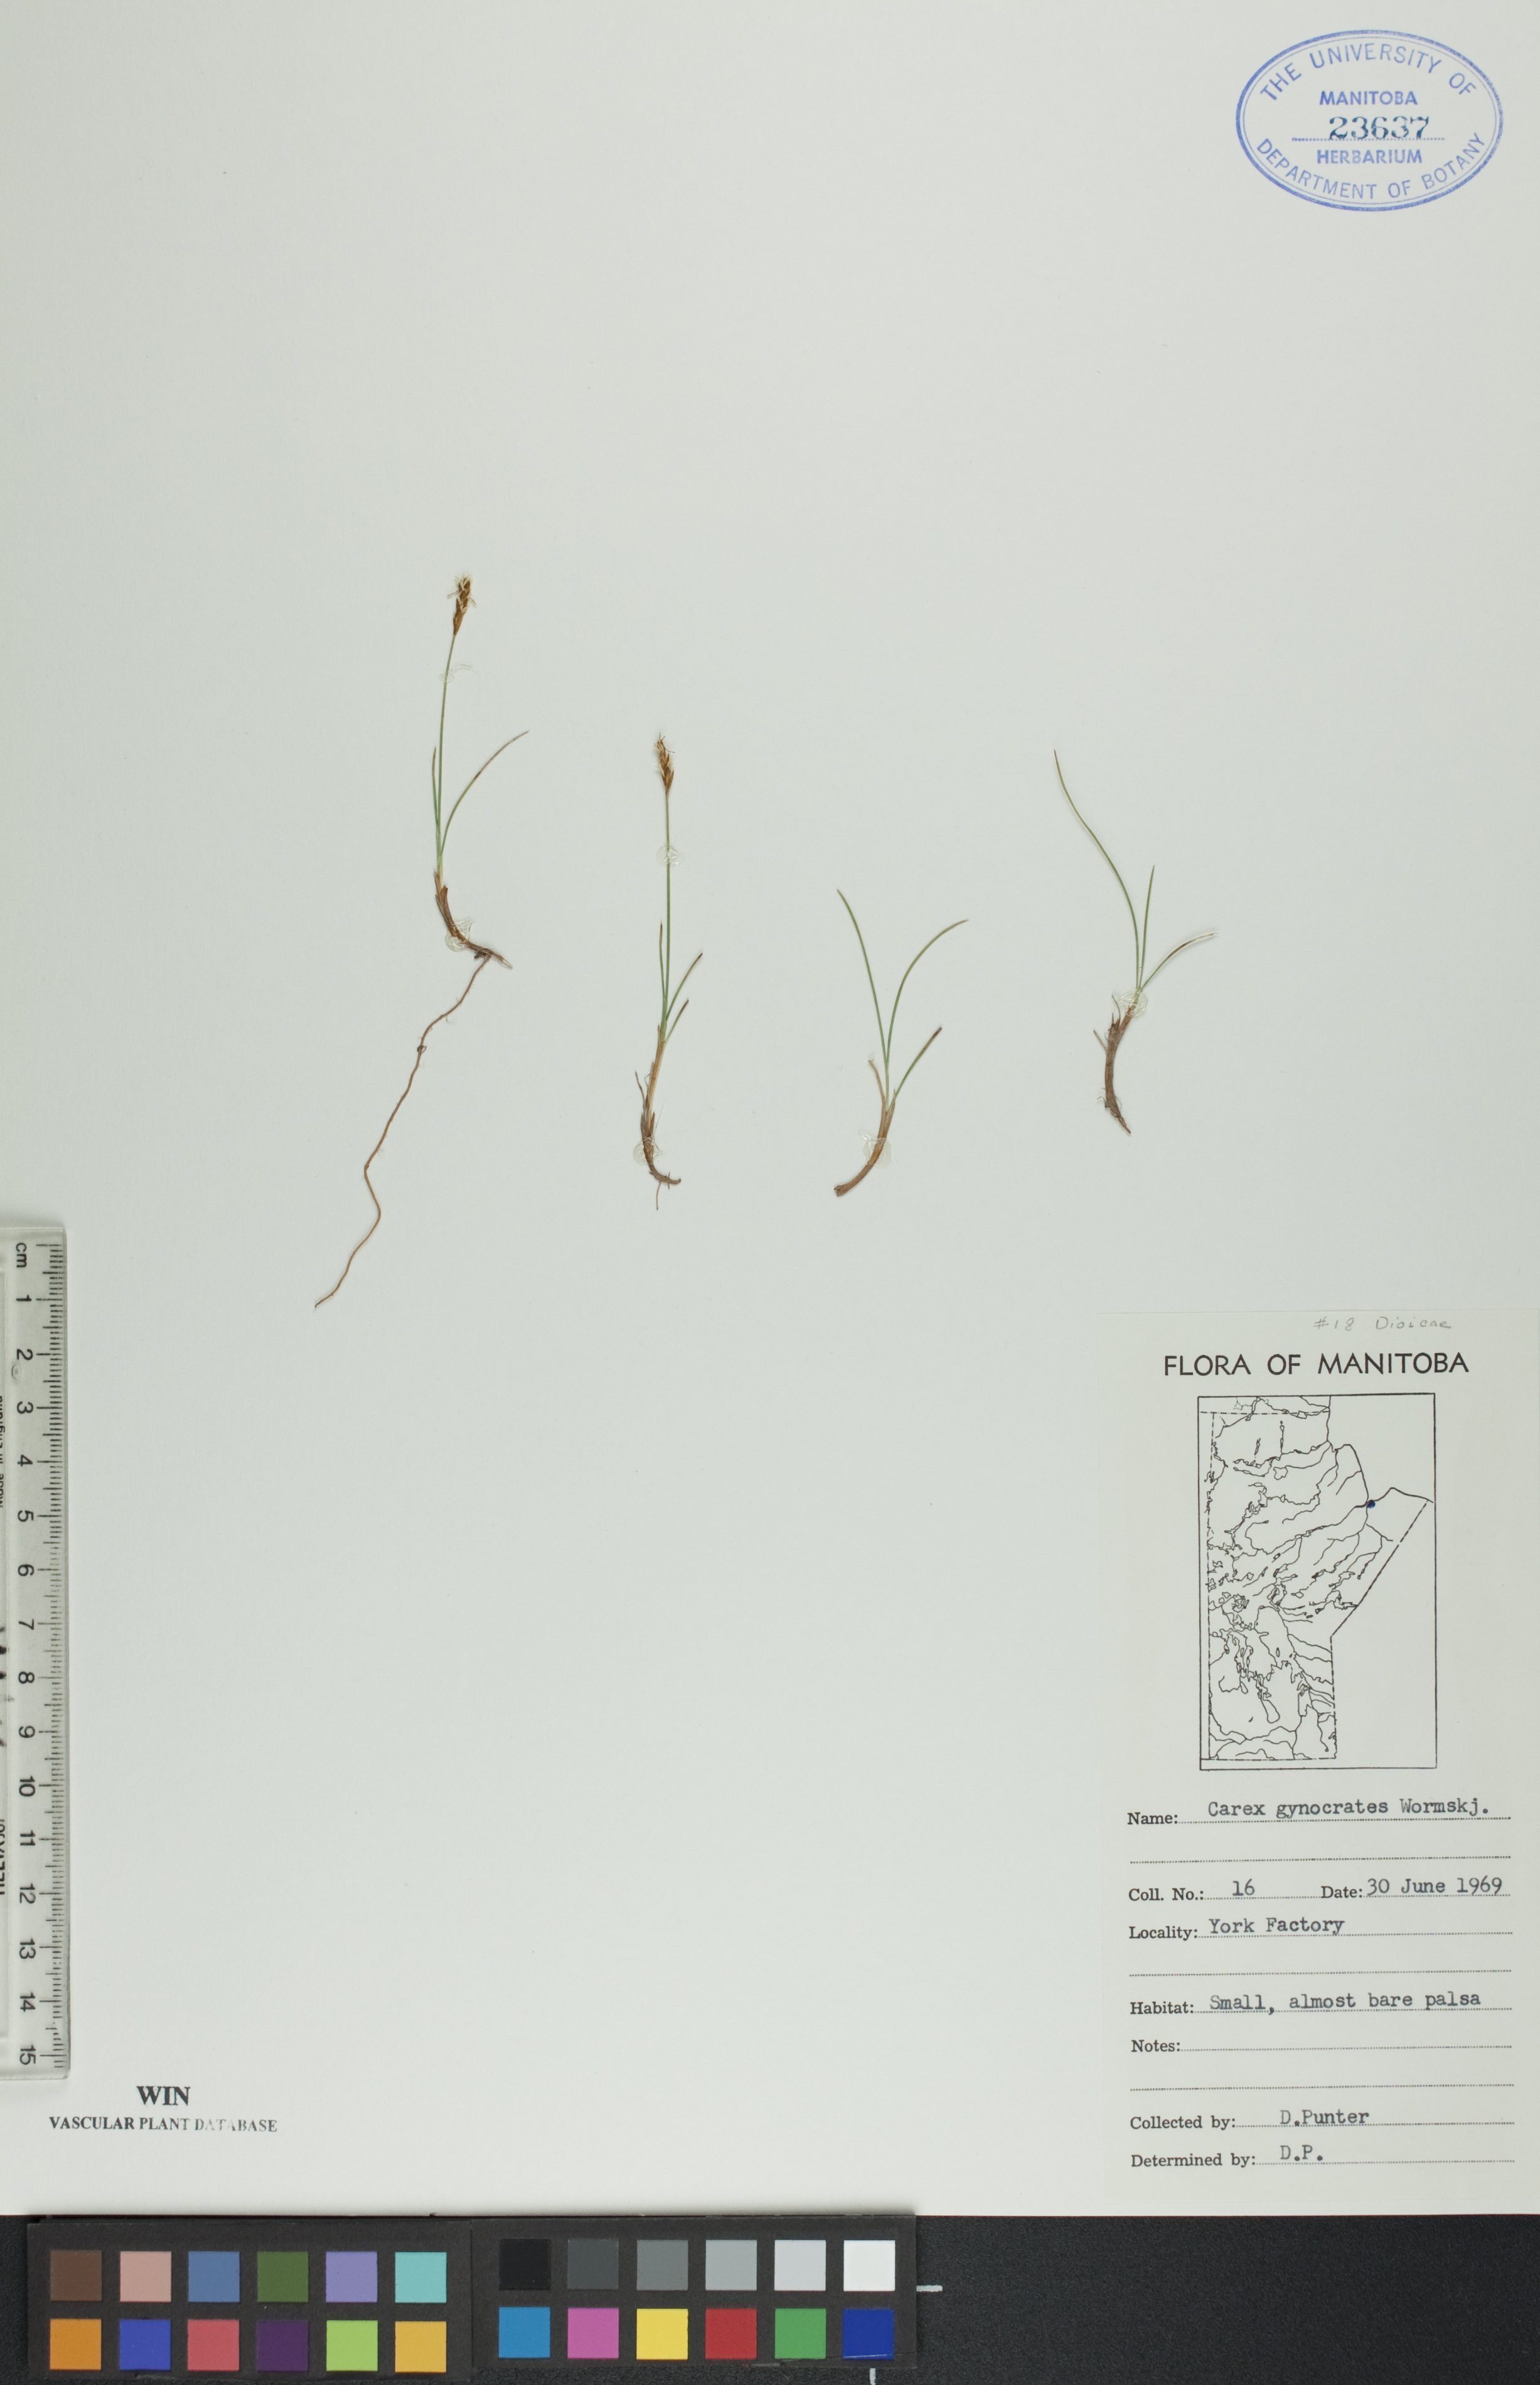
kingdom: Plantae
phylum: Tracheophyta
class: Liliopsida
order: Poales
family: Cyperaceae
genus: Carex
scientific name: Carex nardina
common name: Nard sedge
